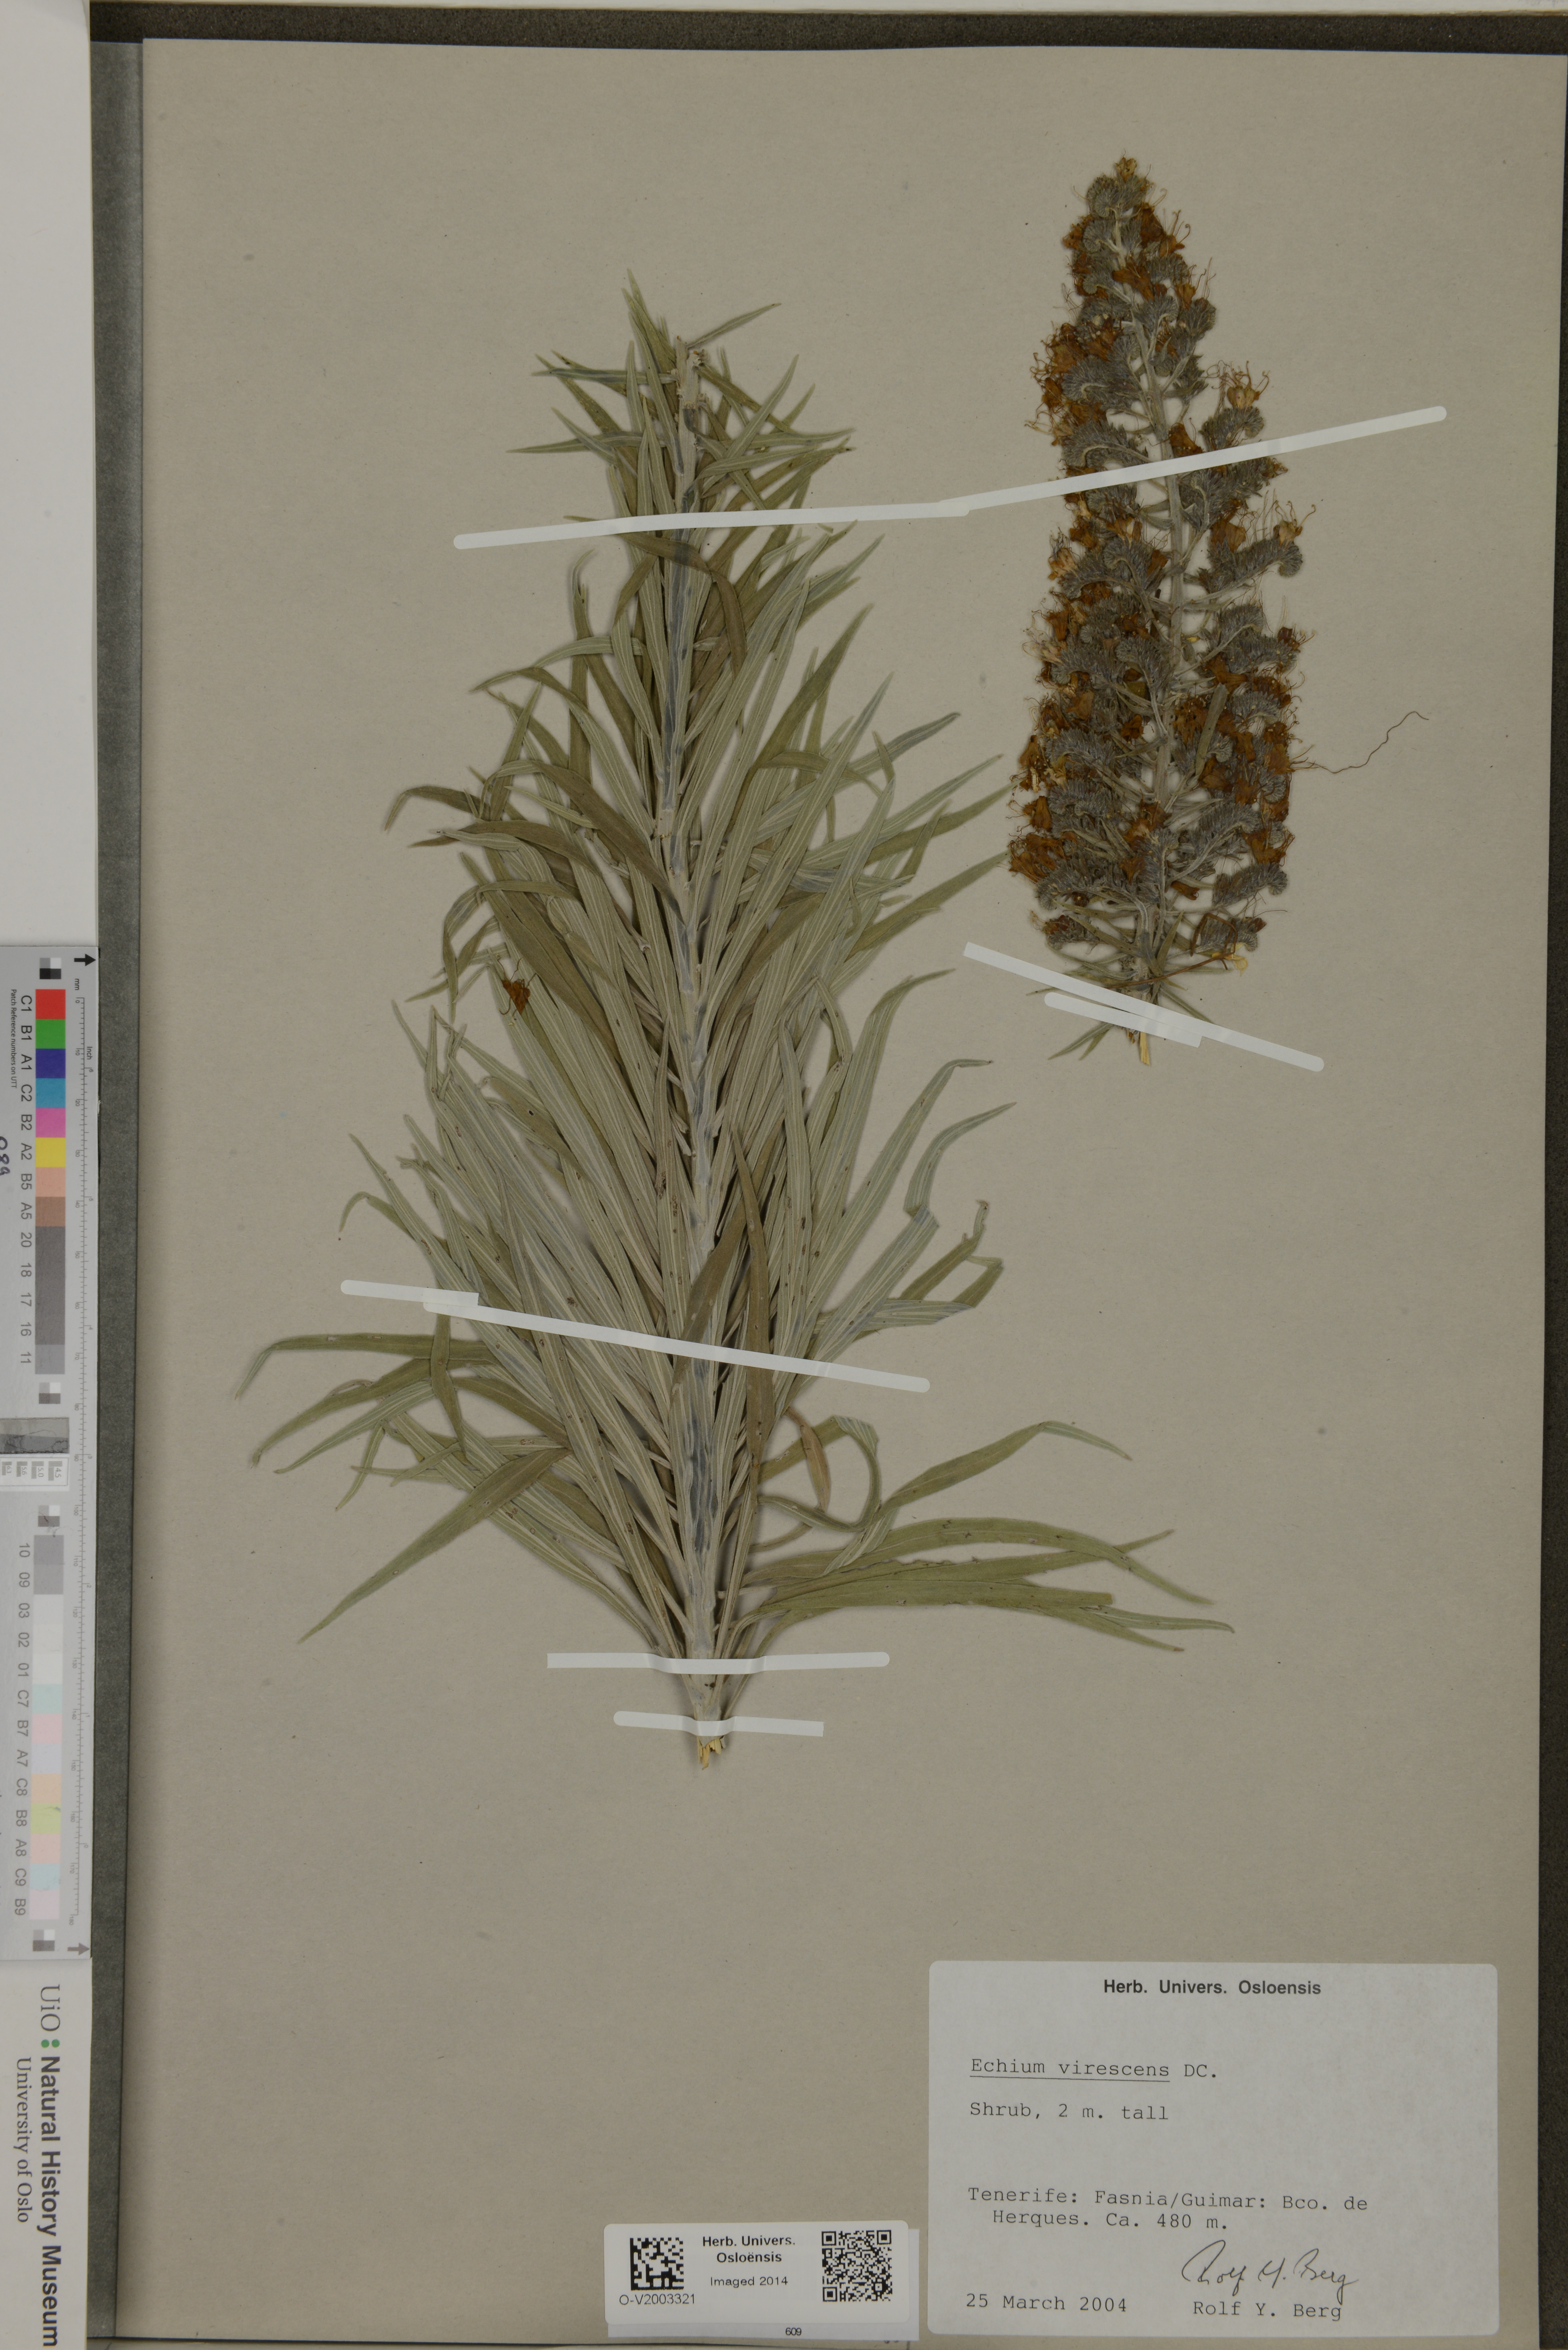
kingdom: Plantae
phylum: Tracheophyta
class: Magnoliopsida
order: Boraginales
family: Boraginaceae
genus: Echium
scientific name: Echium virescens
